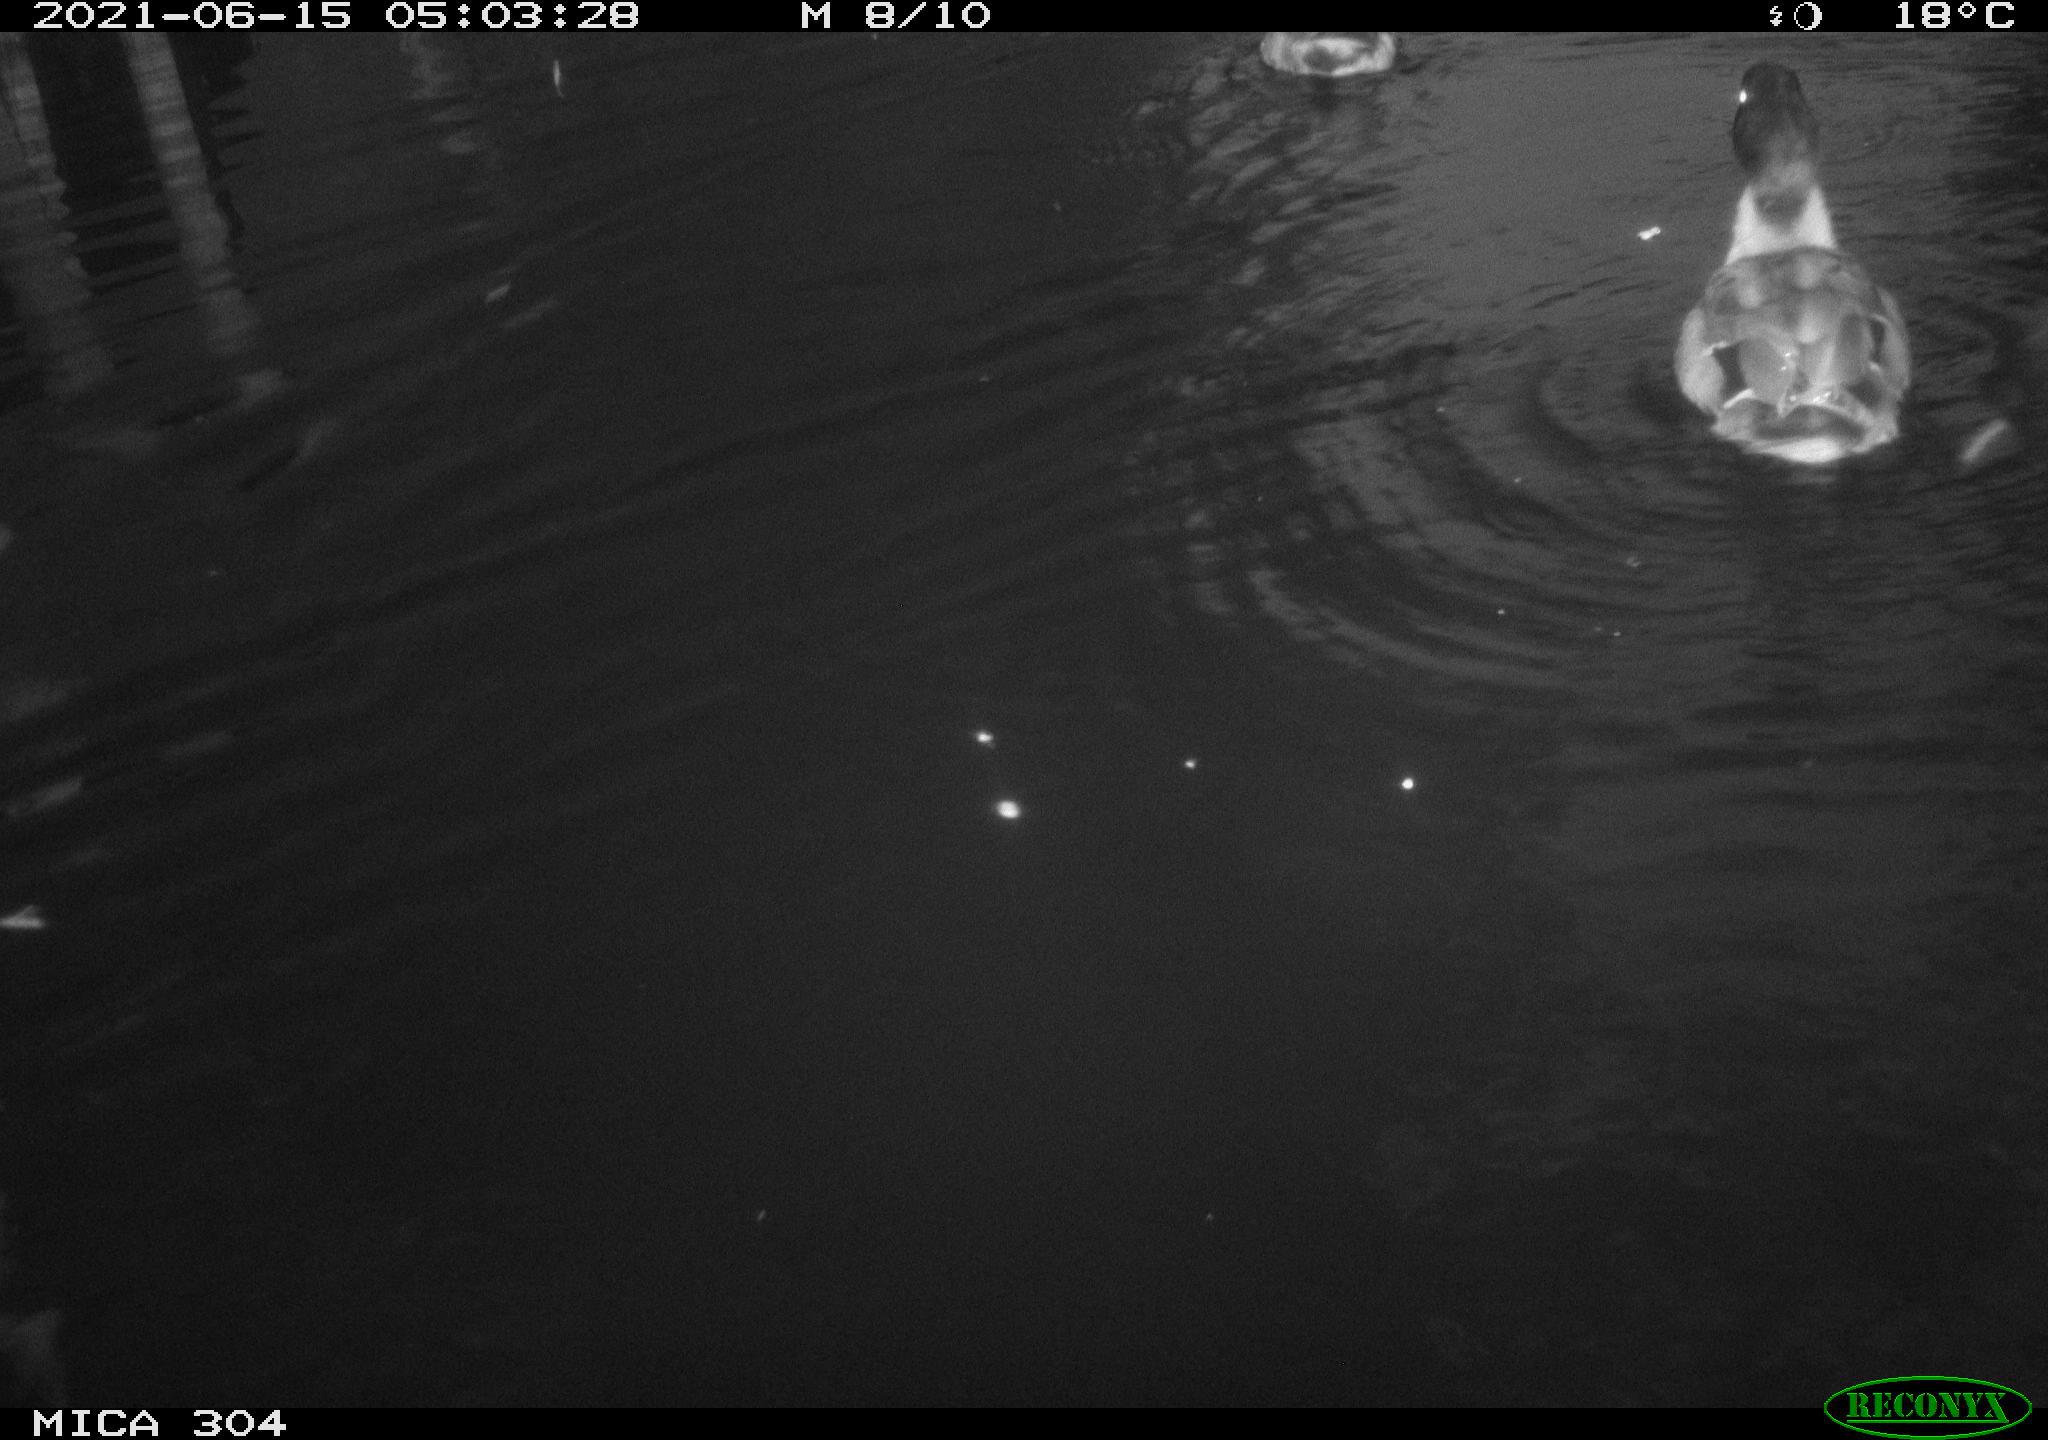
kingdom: Animalia
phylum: Chordata
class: Aves
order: Anseriformes
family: Anatidae
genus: Anas
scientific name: Anas platyrhynchos
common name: Mallard
